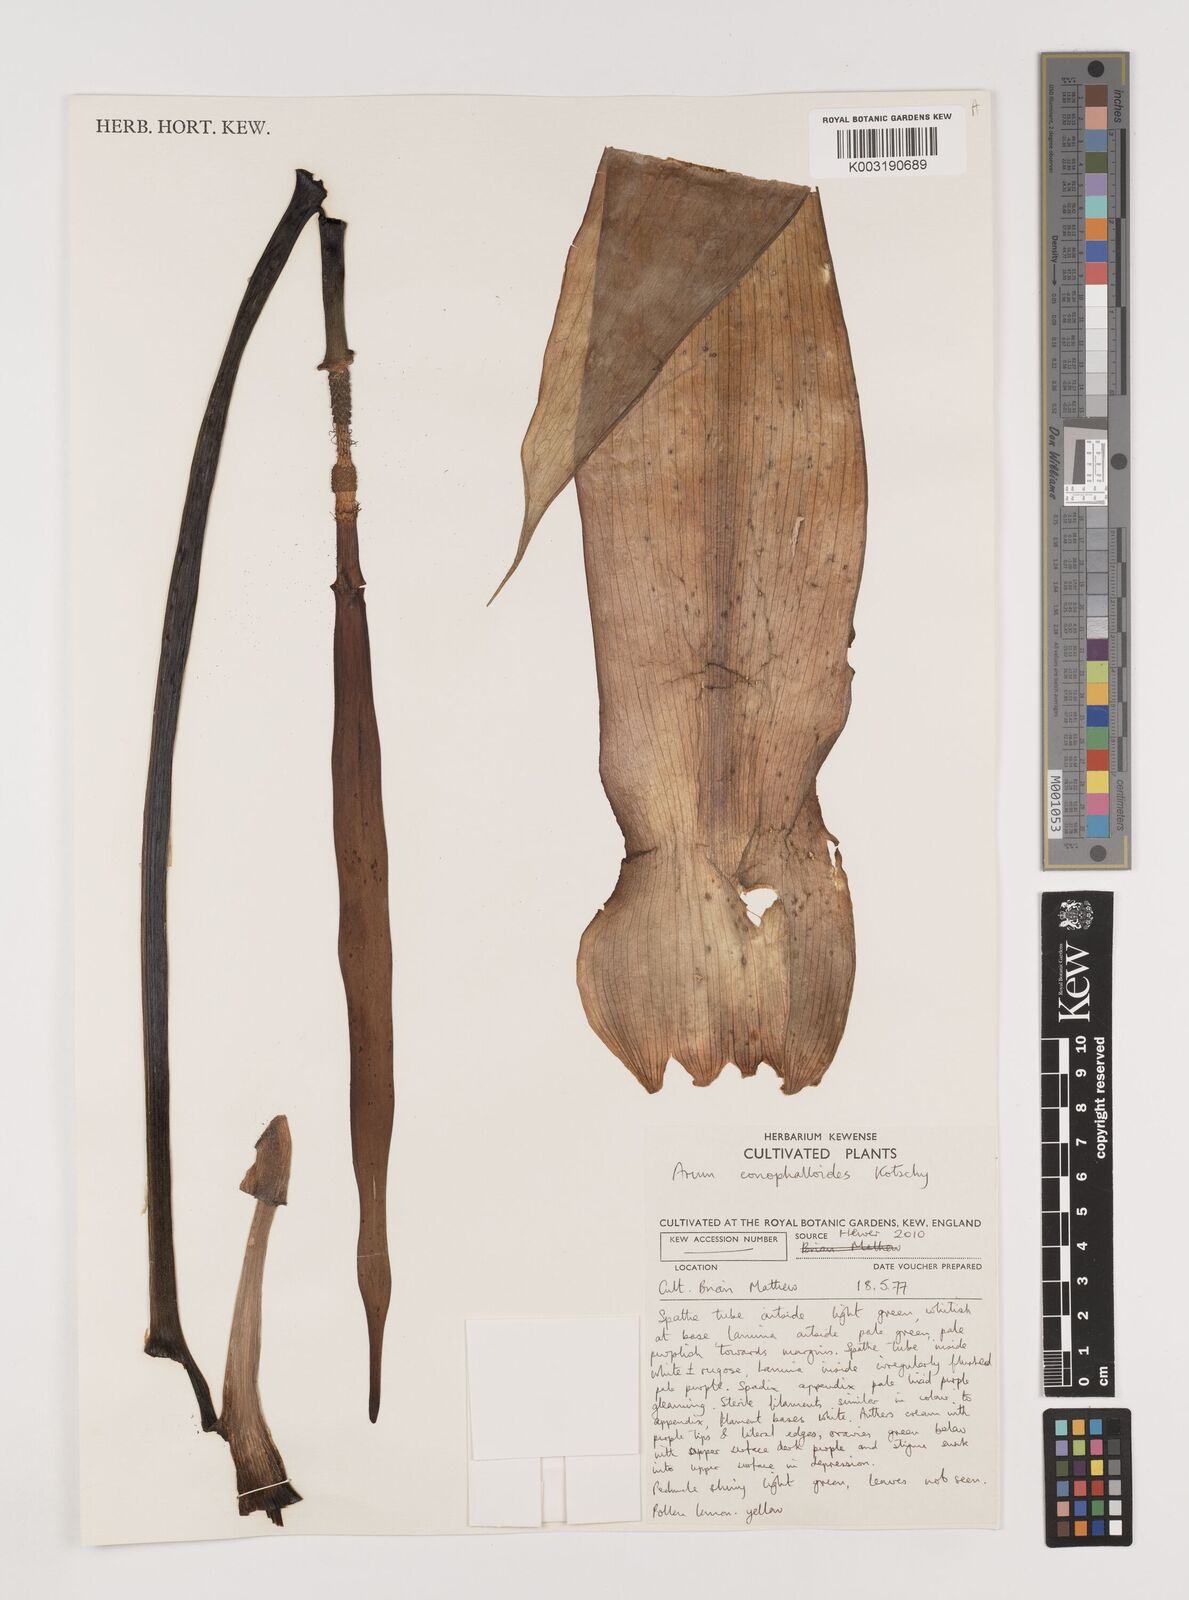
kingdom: Plantae
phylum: Tracheophyta
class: Liliopsida
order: Alismatales
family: Araceae
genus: Arum
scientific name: Arum rupicola
